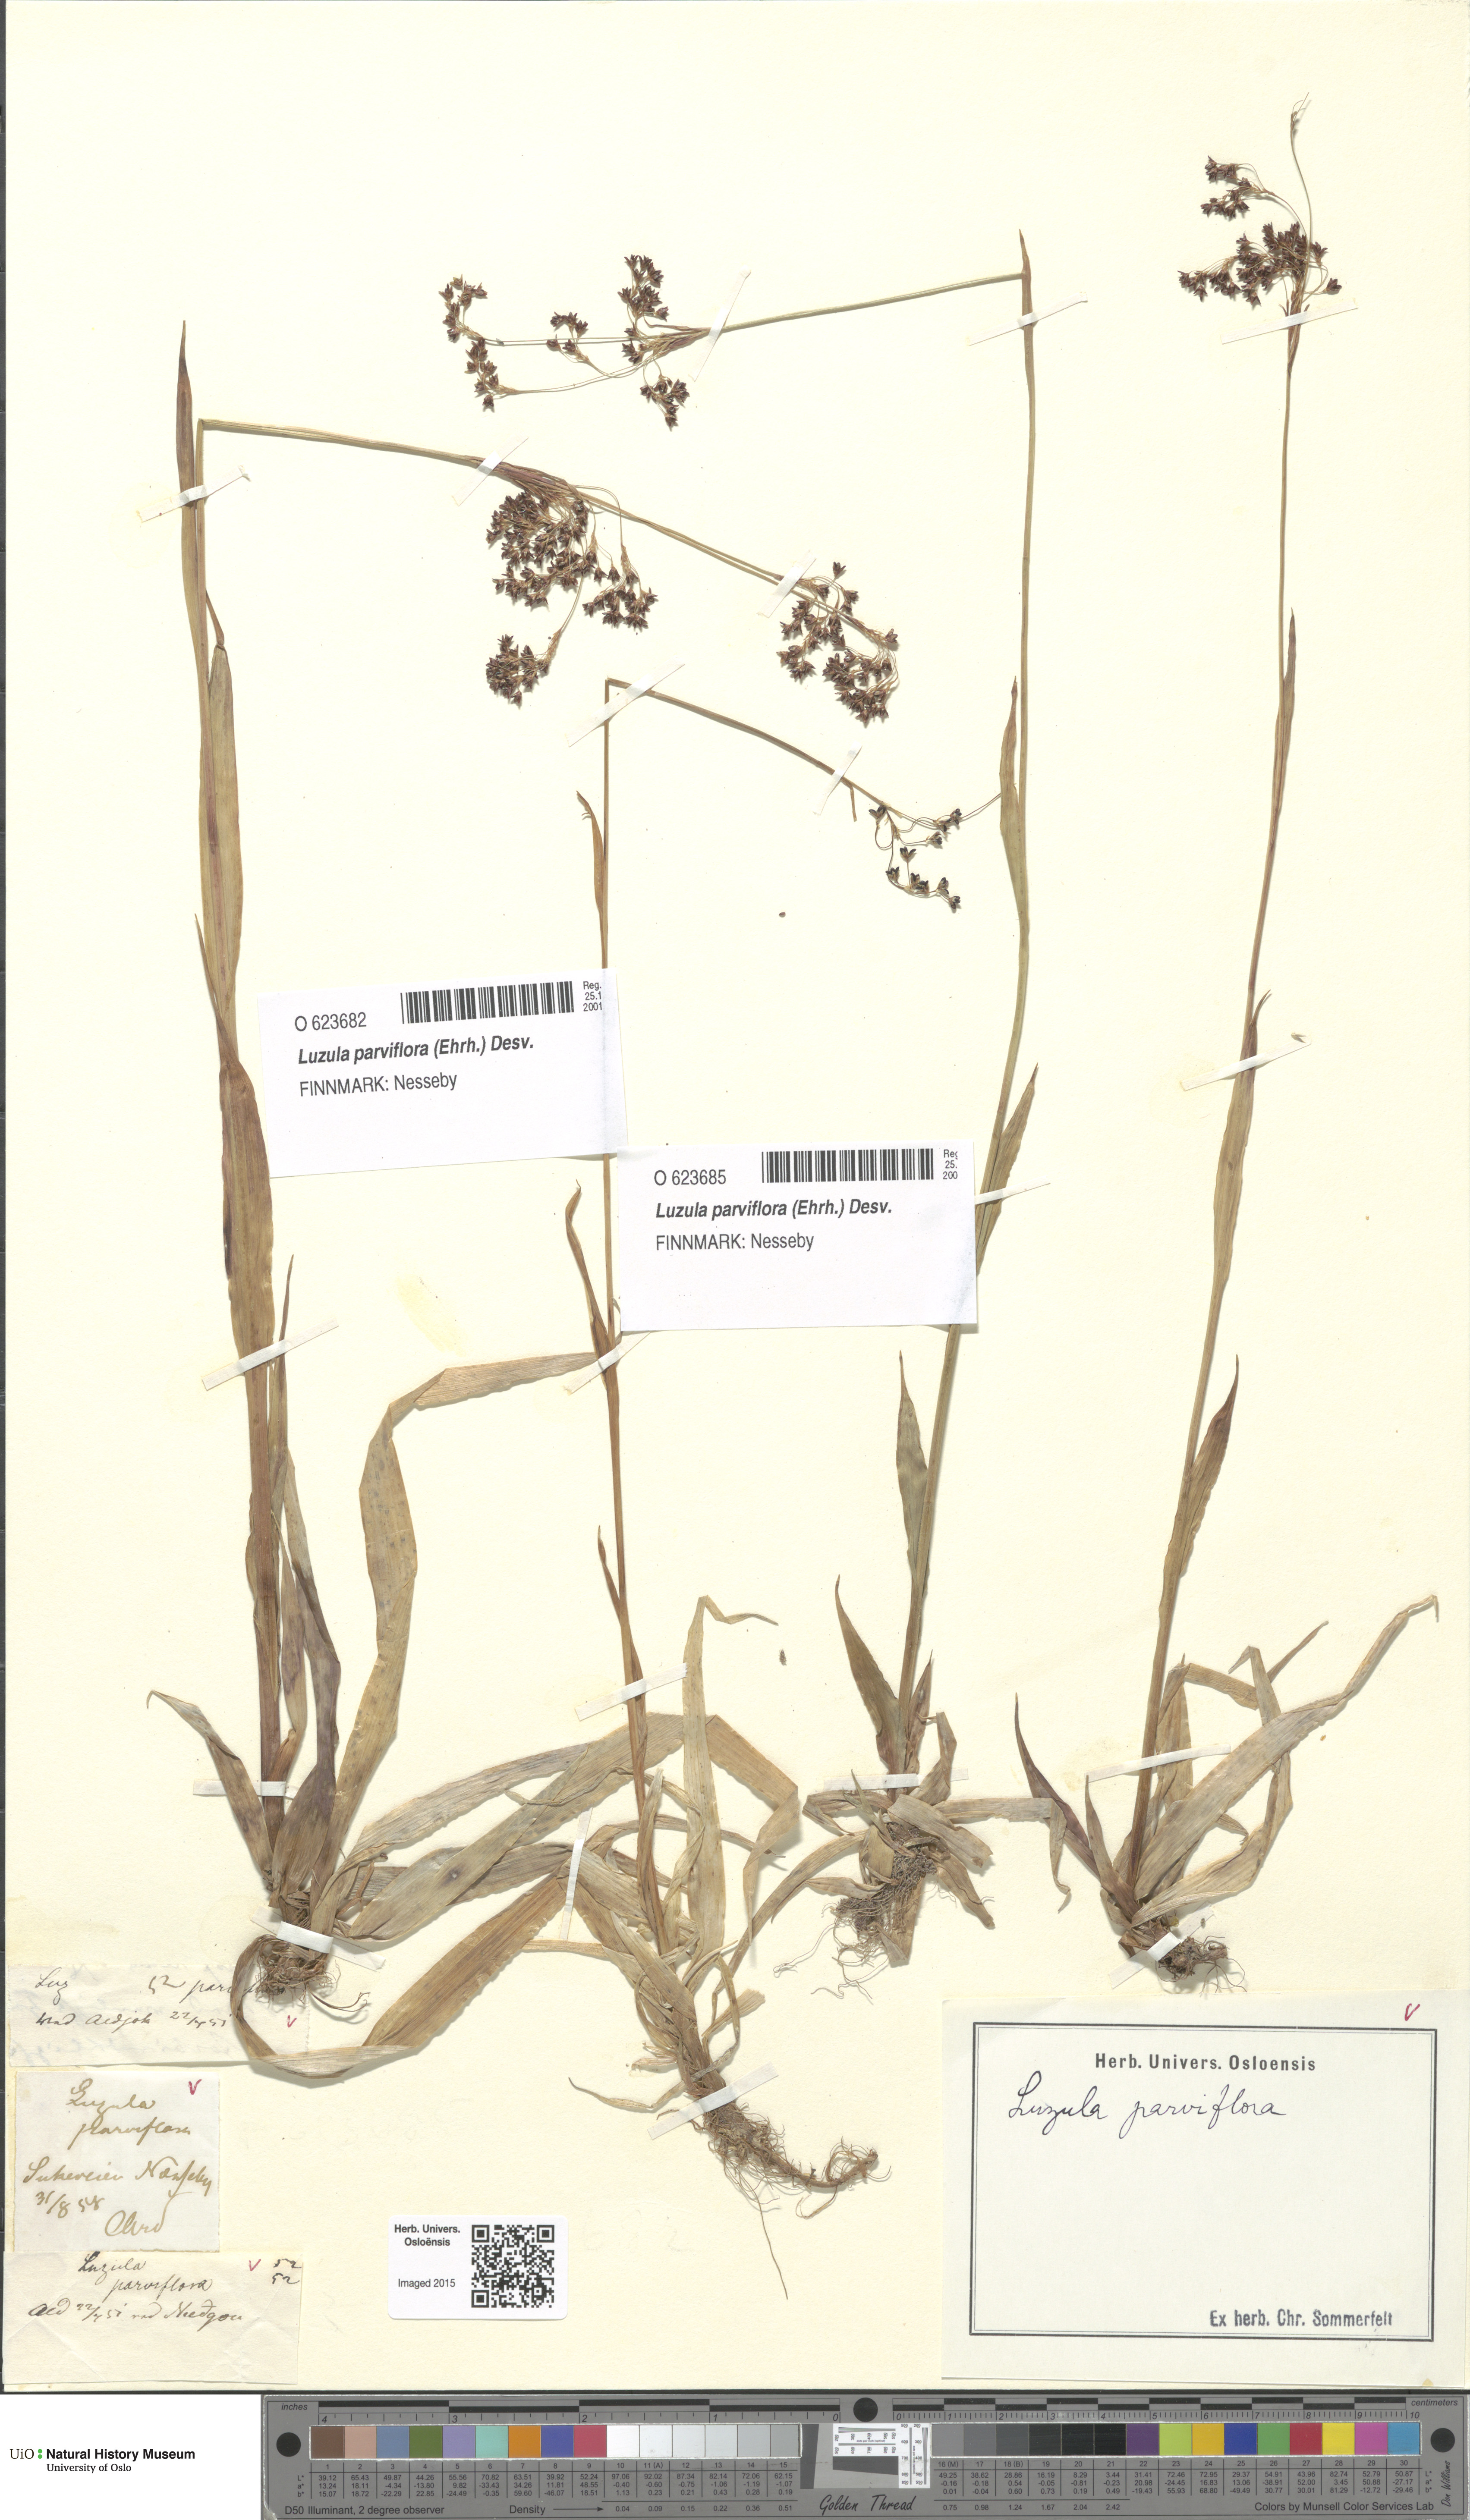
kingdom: Plantae
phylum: Tracheophyta
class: Liliopsida
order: Poales
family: Juncaceae
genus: Luzula
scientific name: Luzula parviflora
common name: Millet woodrush
